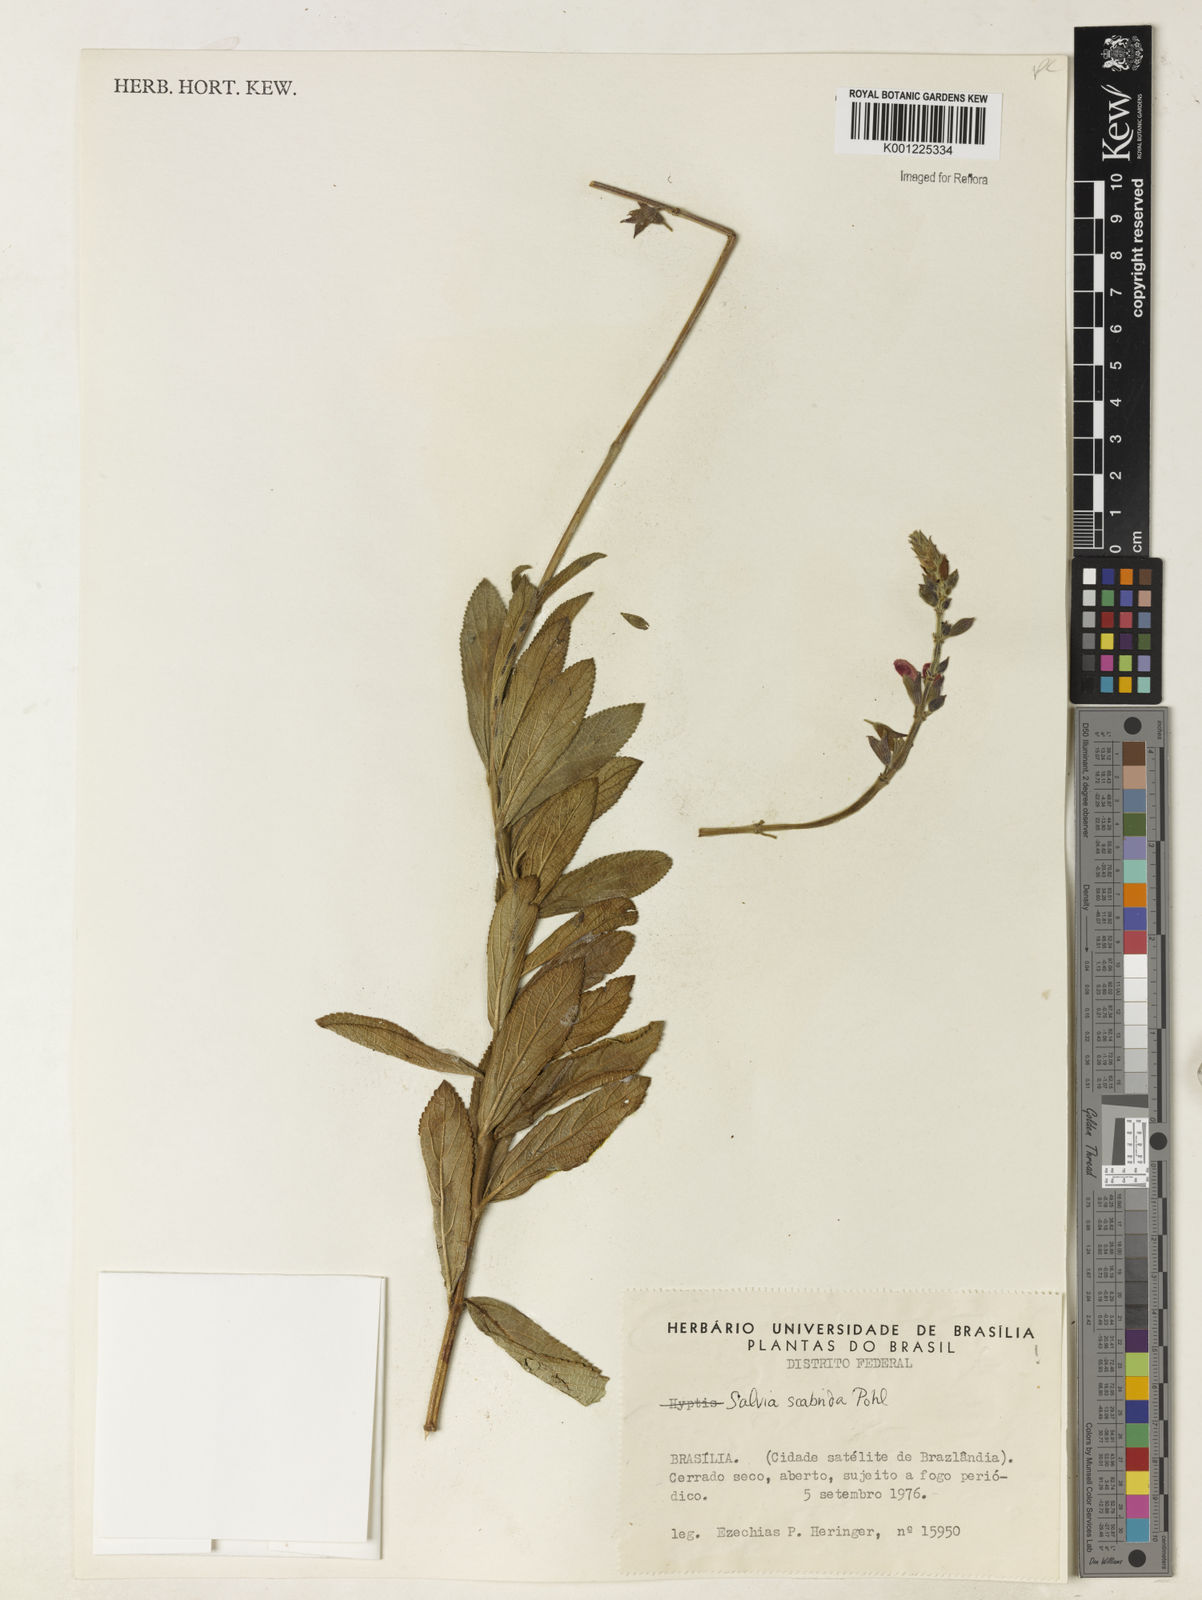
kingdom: Plantae
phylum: Tracheophyta
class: Magnoliopsida
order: Lamiales
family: Lamiaceae
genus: Salvia
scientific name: Salvia scabrida
